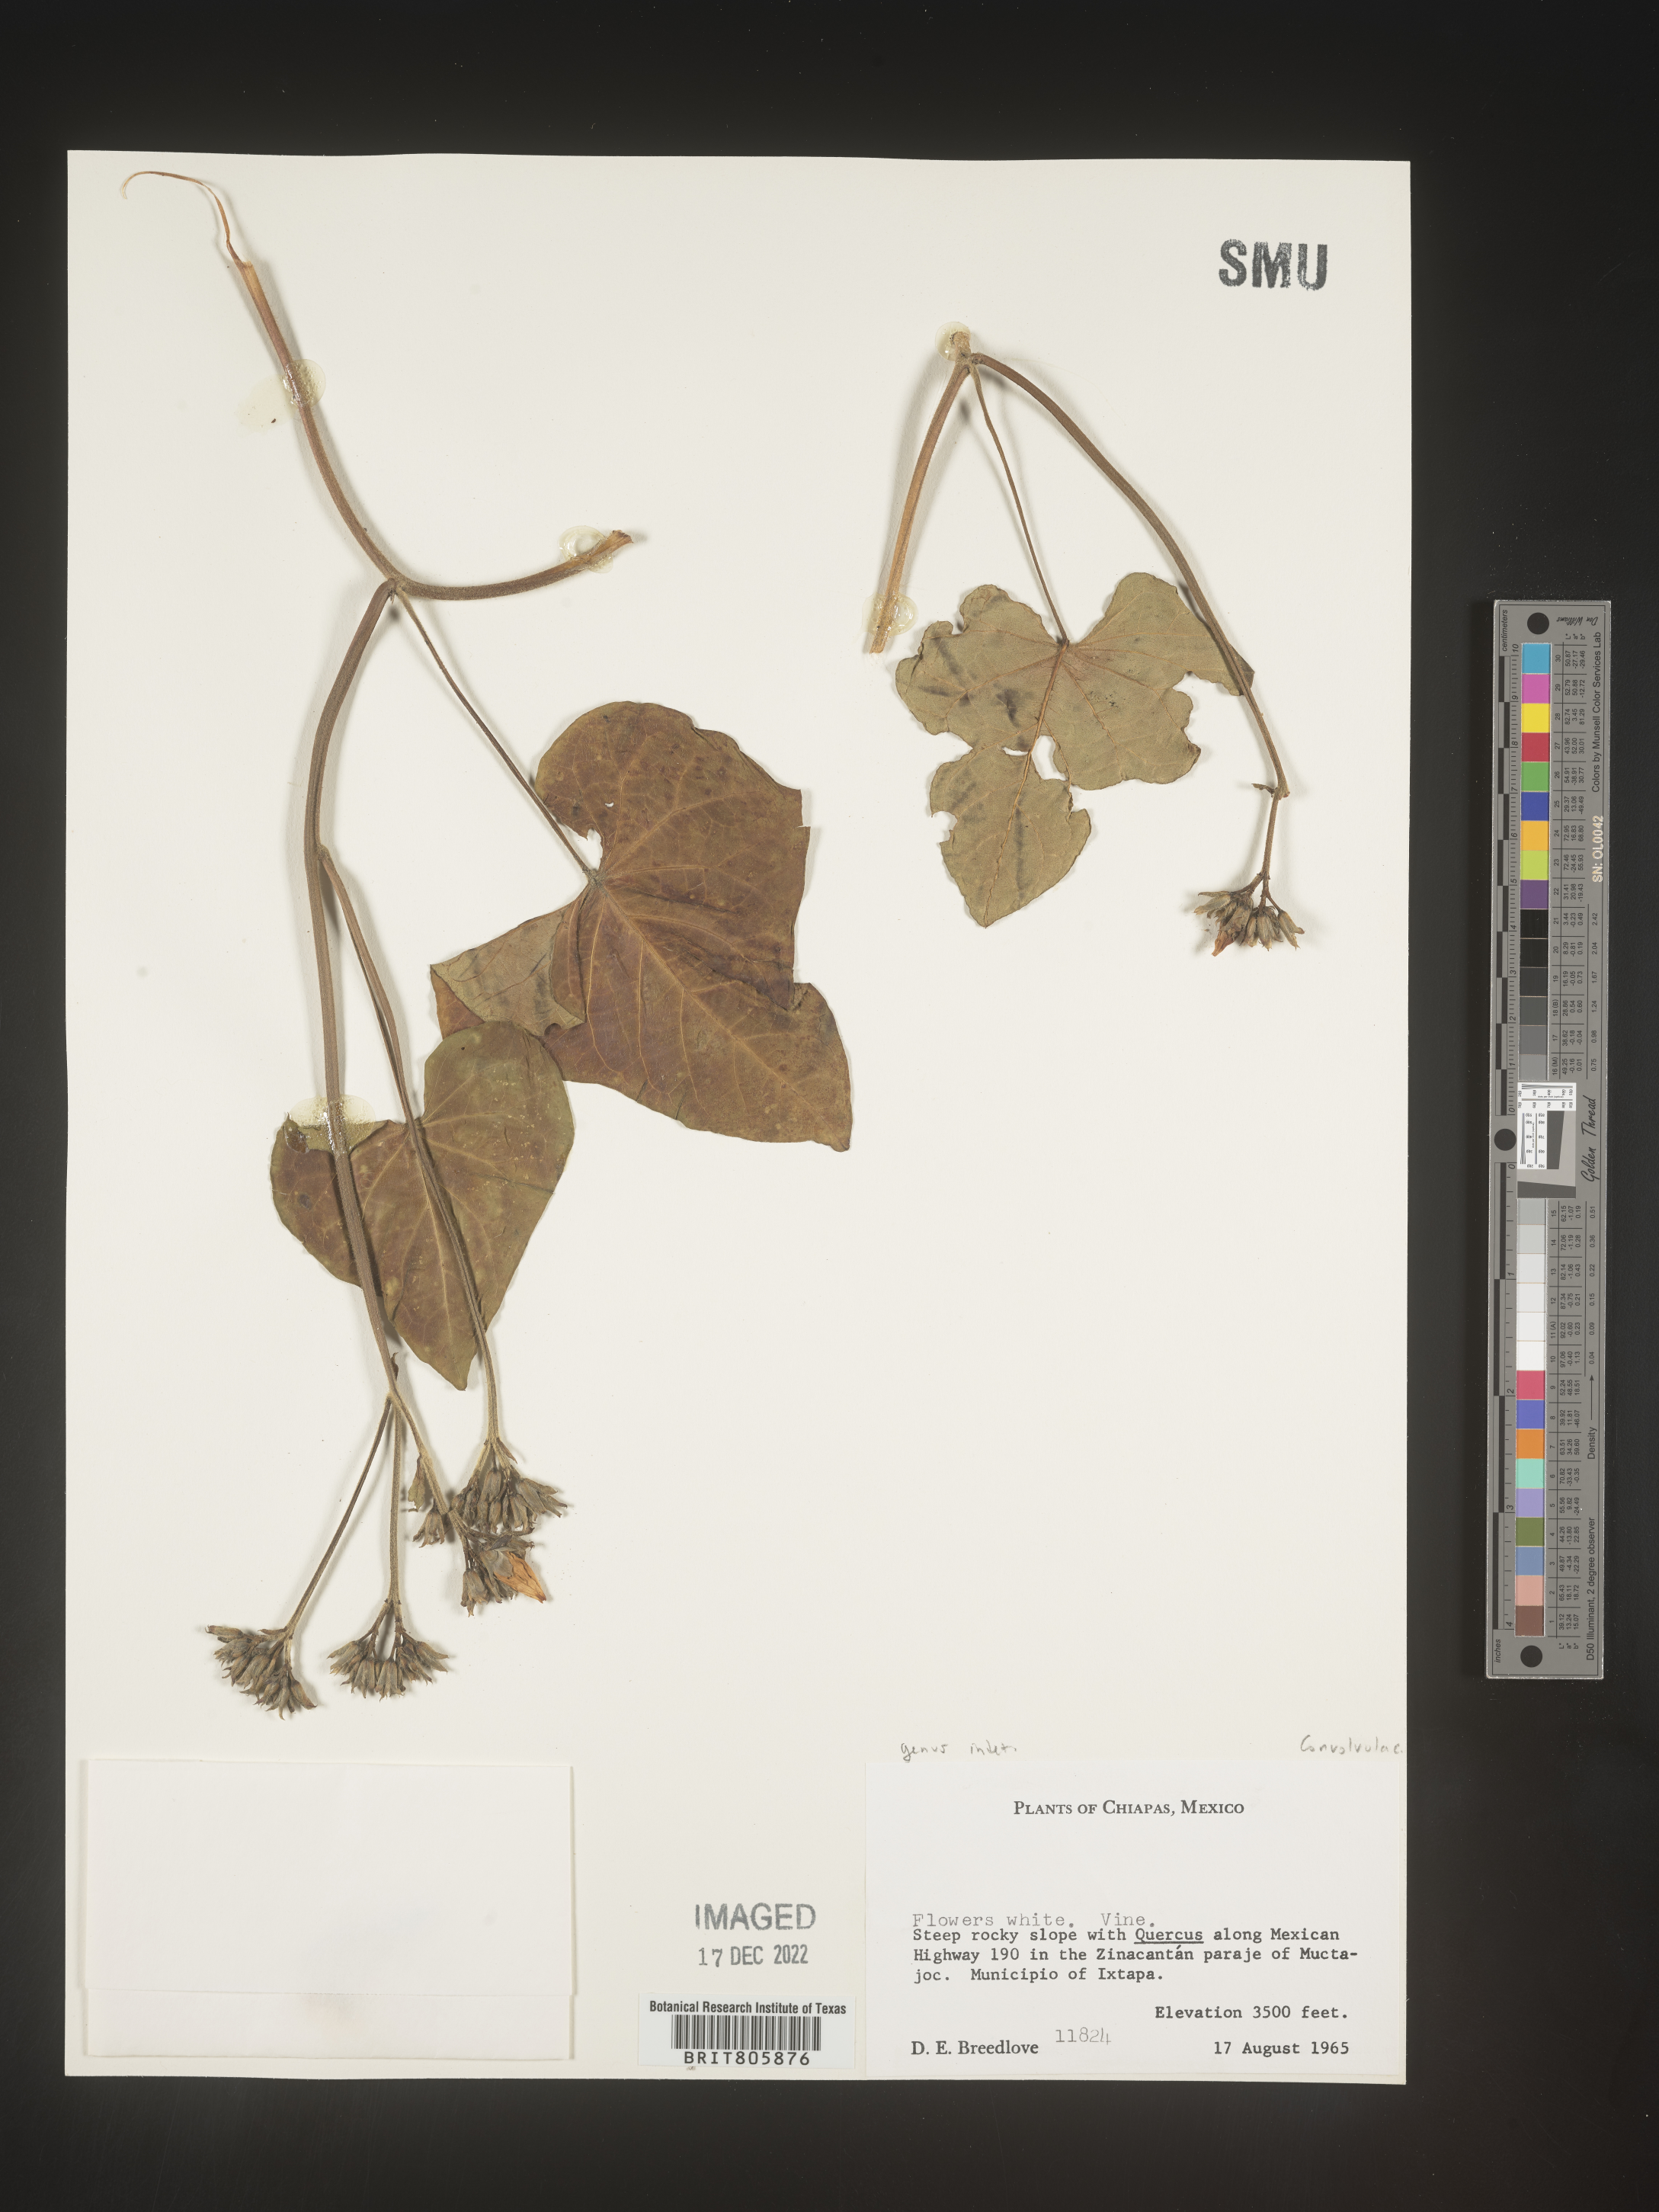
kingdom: Plantae
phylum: Tracheophyta
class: Magnoliopsida
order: Solanales
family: Convolvulaceae
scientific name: Convolvulaceae
